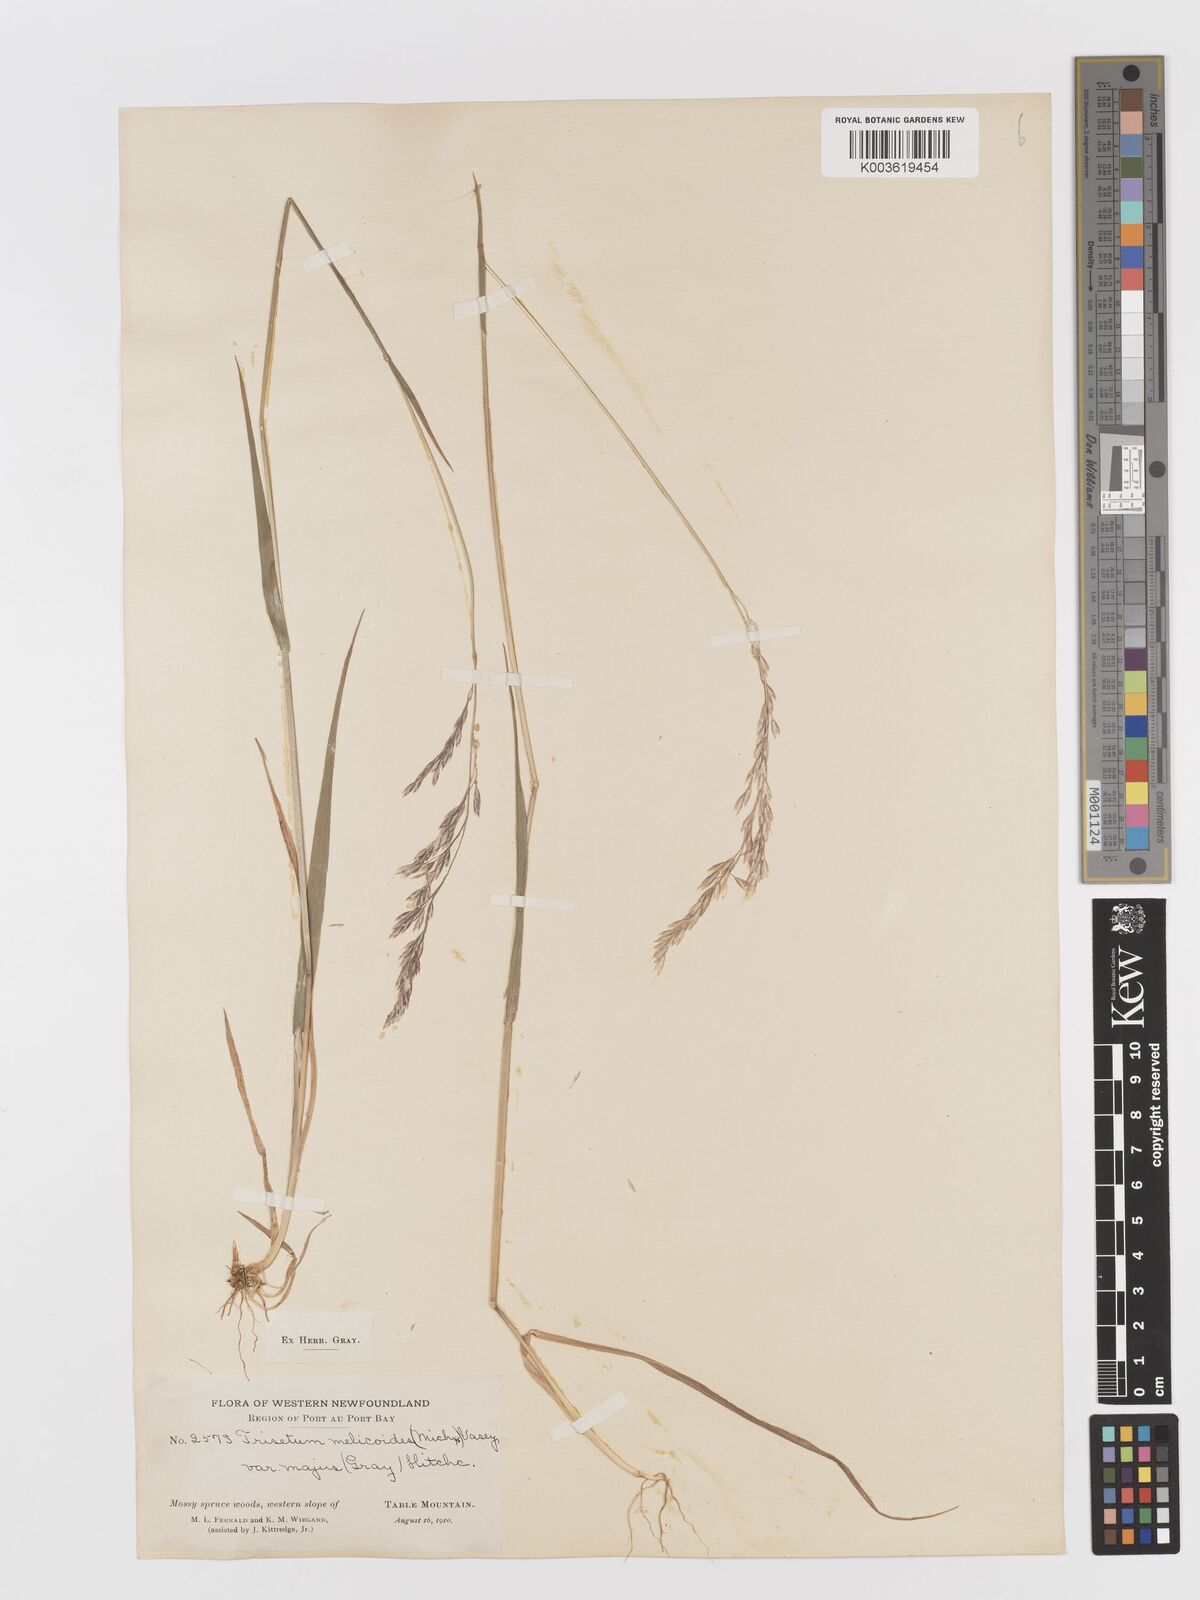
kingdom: Plantae
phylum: Tracheophyta
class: Liliopsida
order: Poales
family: Poaceae
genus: Graphephorum
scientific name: Graphephorum melicoides
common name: False melic
